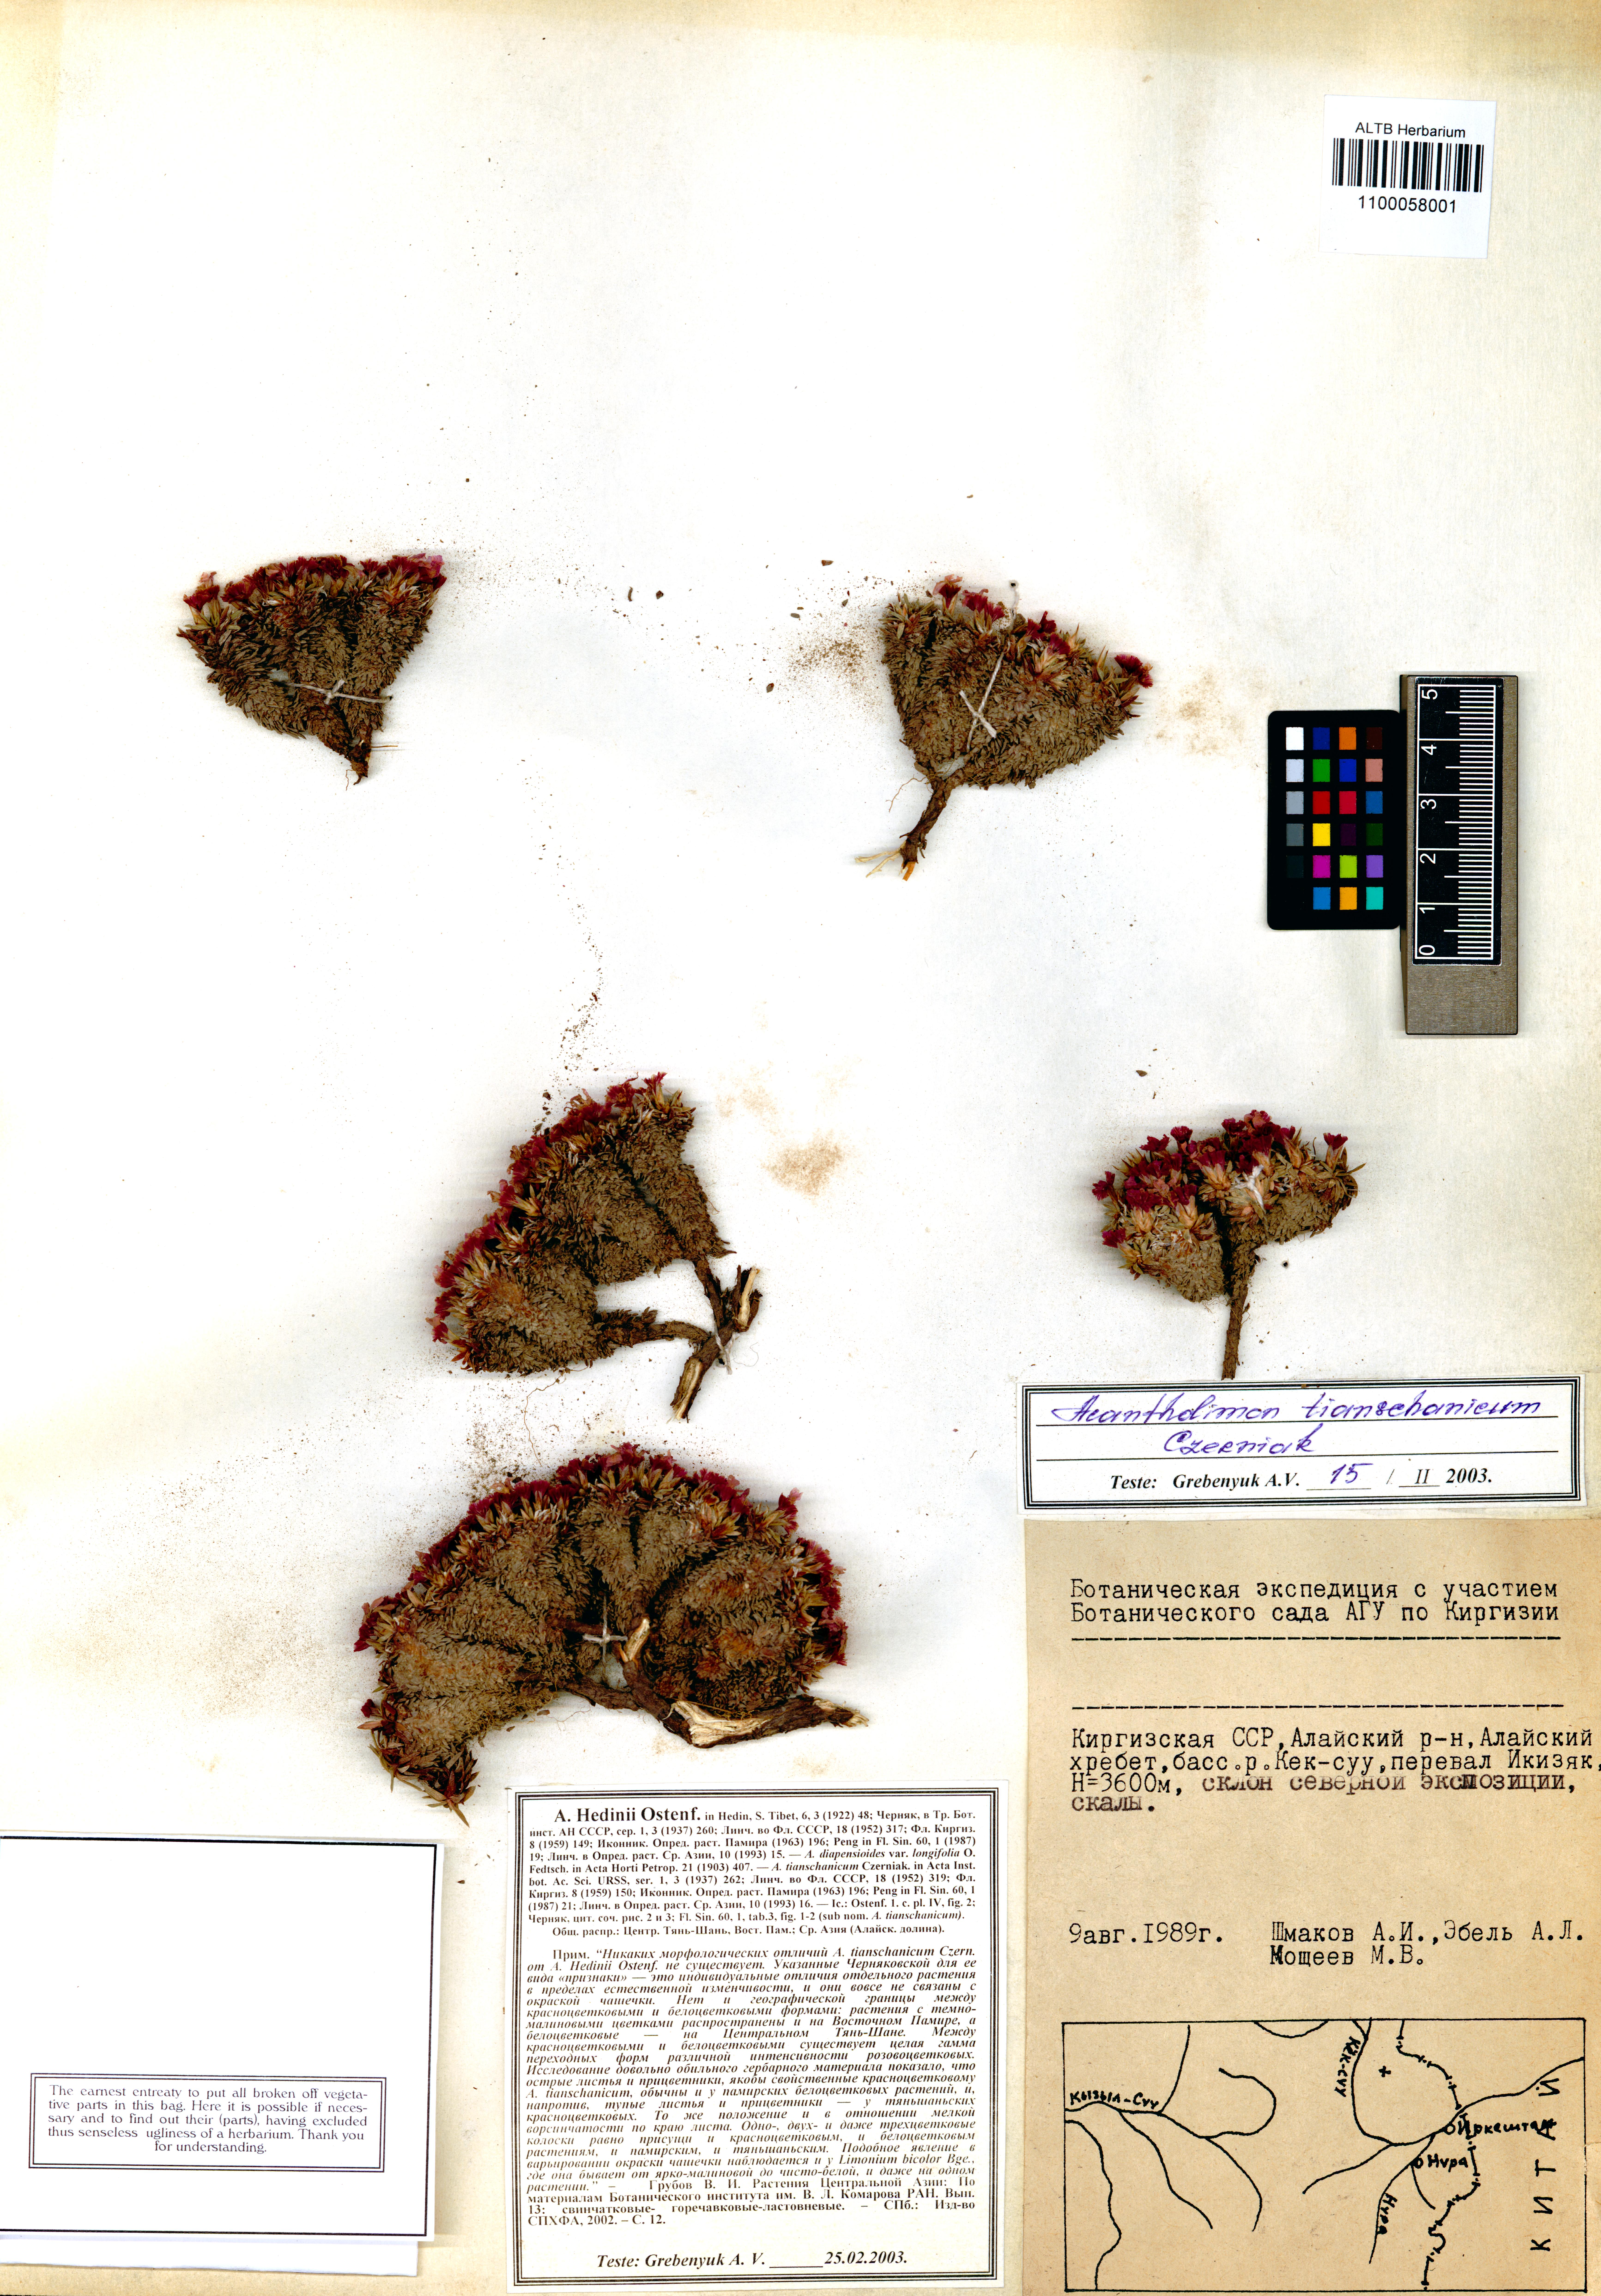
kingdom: Plantae
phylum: Tracheophyta
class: Magnoliopsida
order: Caryophyllales
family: Plumbaginaceae
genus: Acantholimon
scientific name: Acantholimon tianschanicum
